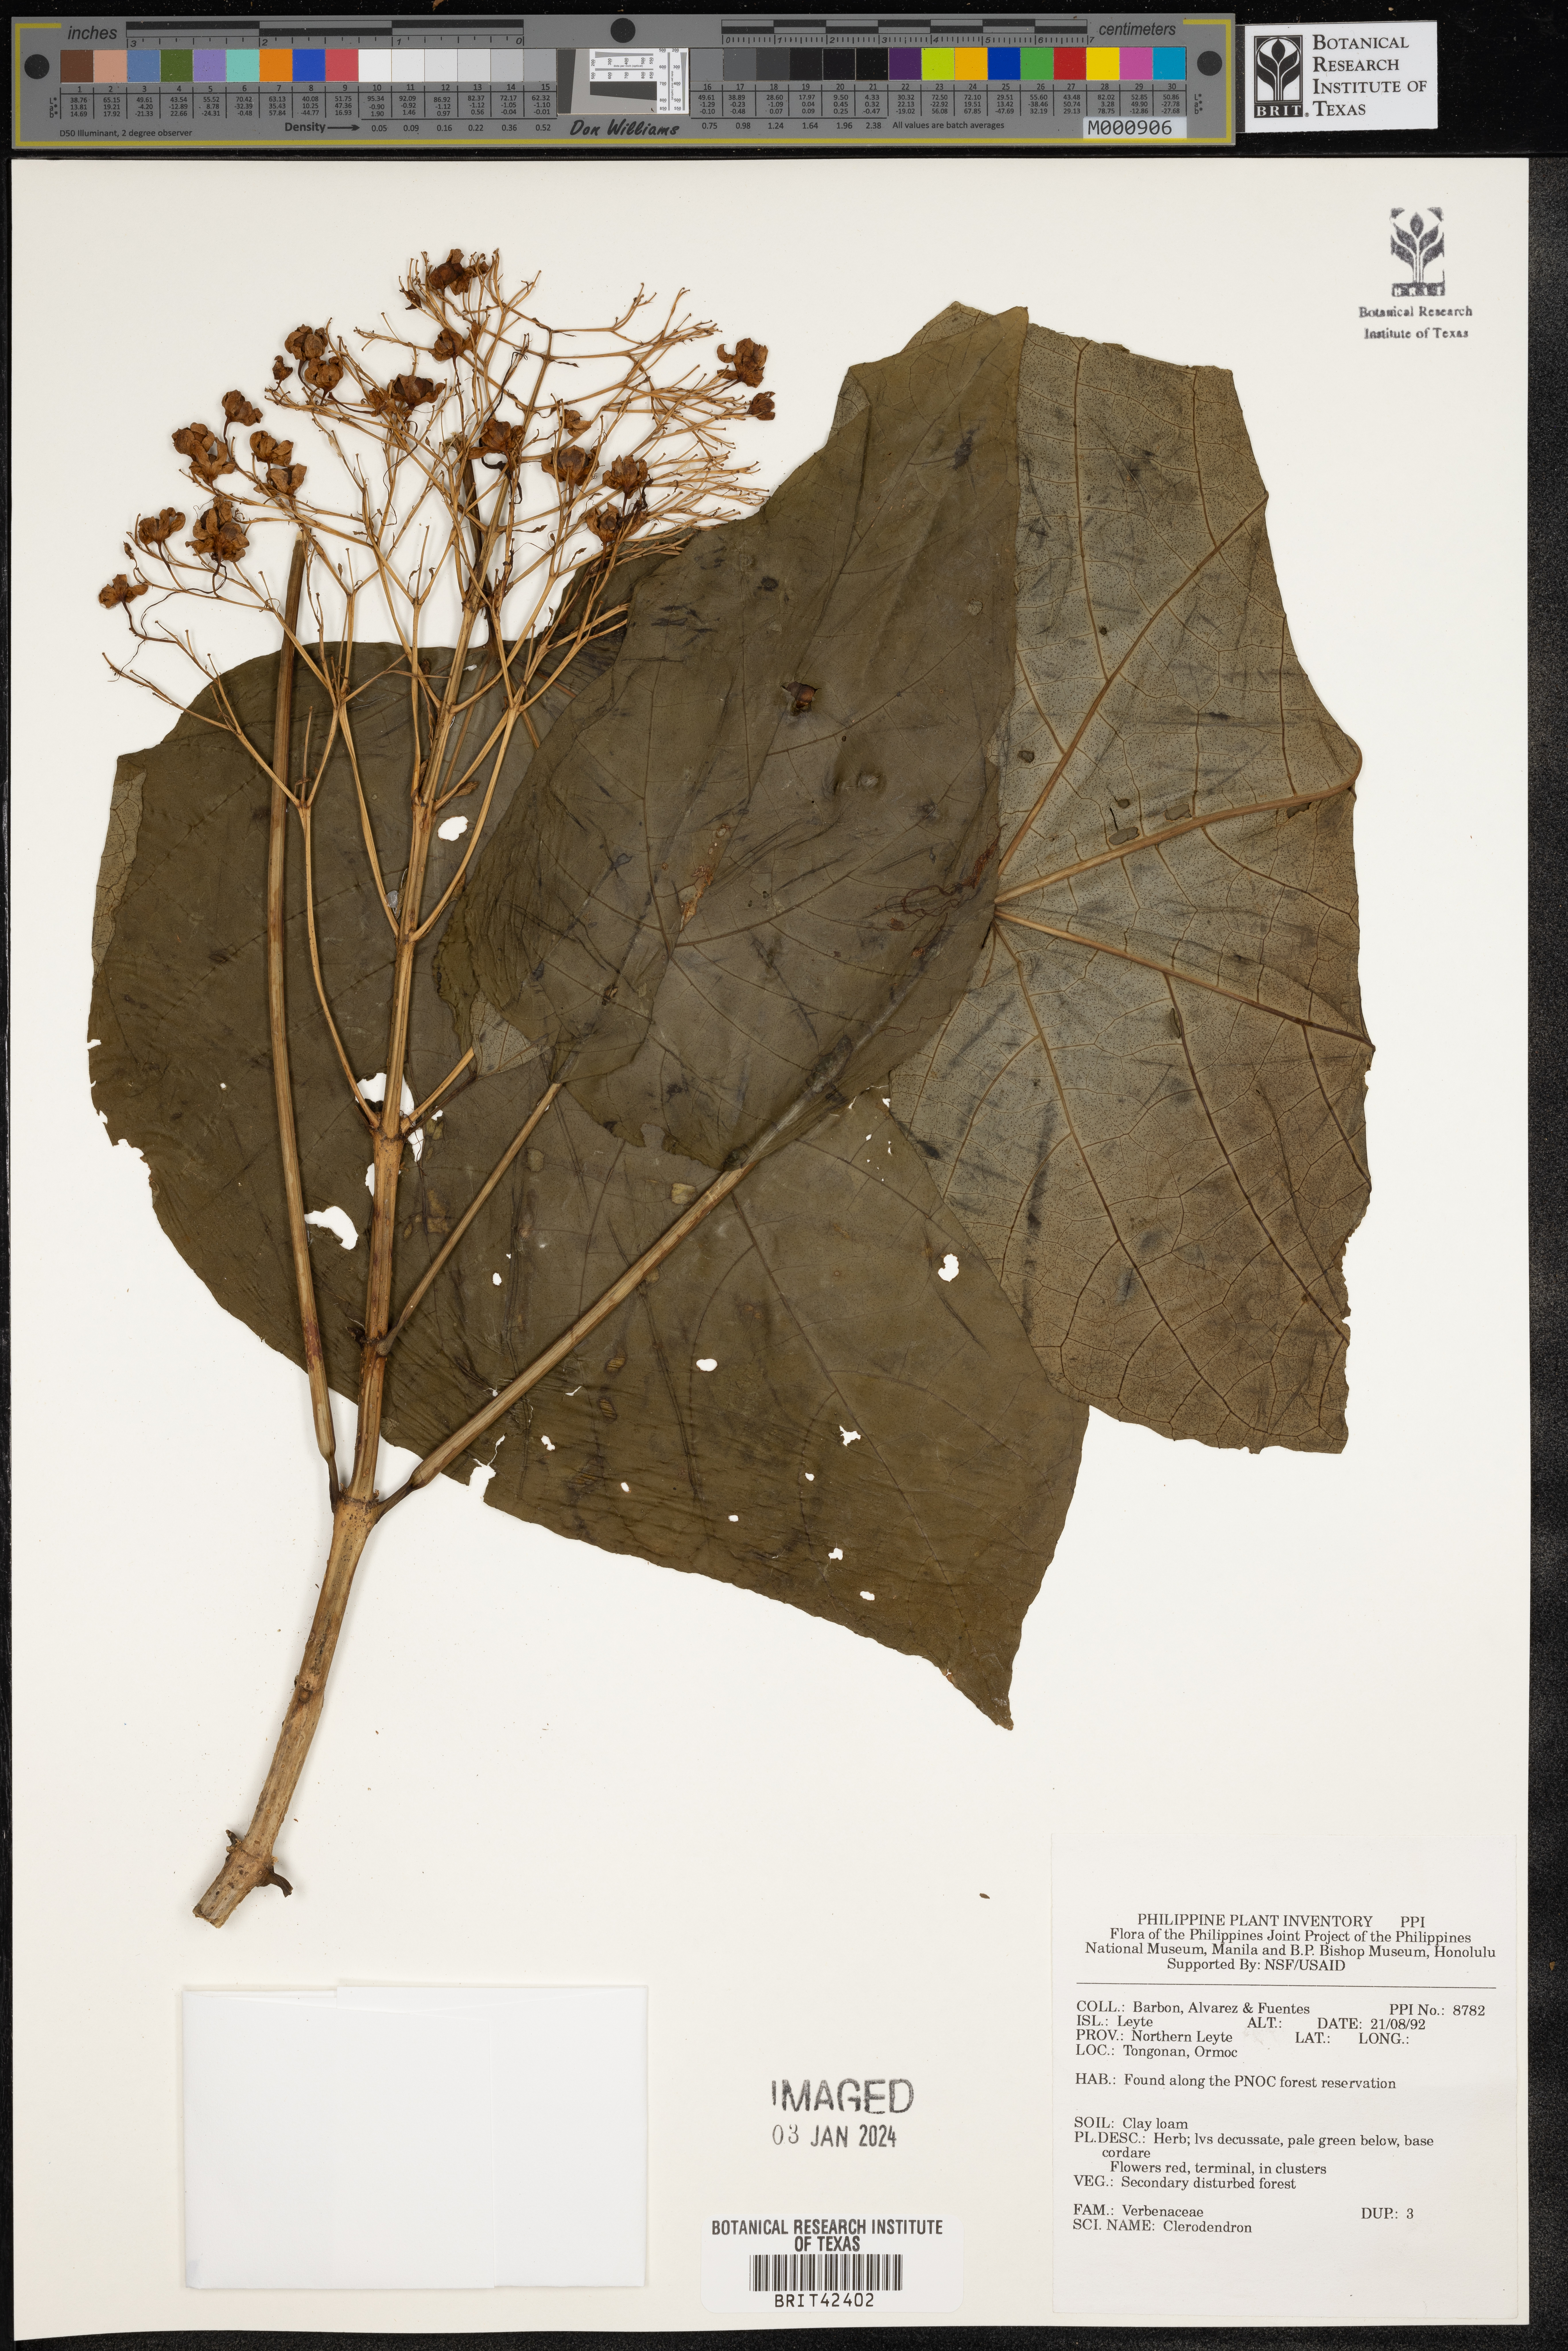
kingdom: Plantae
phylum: Tracheophyta
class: Magnoliopsida
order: Lamiales
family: Lamiaceae
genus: Clerodendrum
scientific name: Clerodendrum
